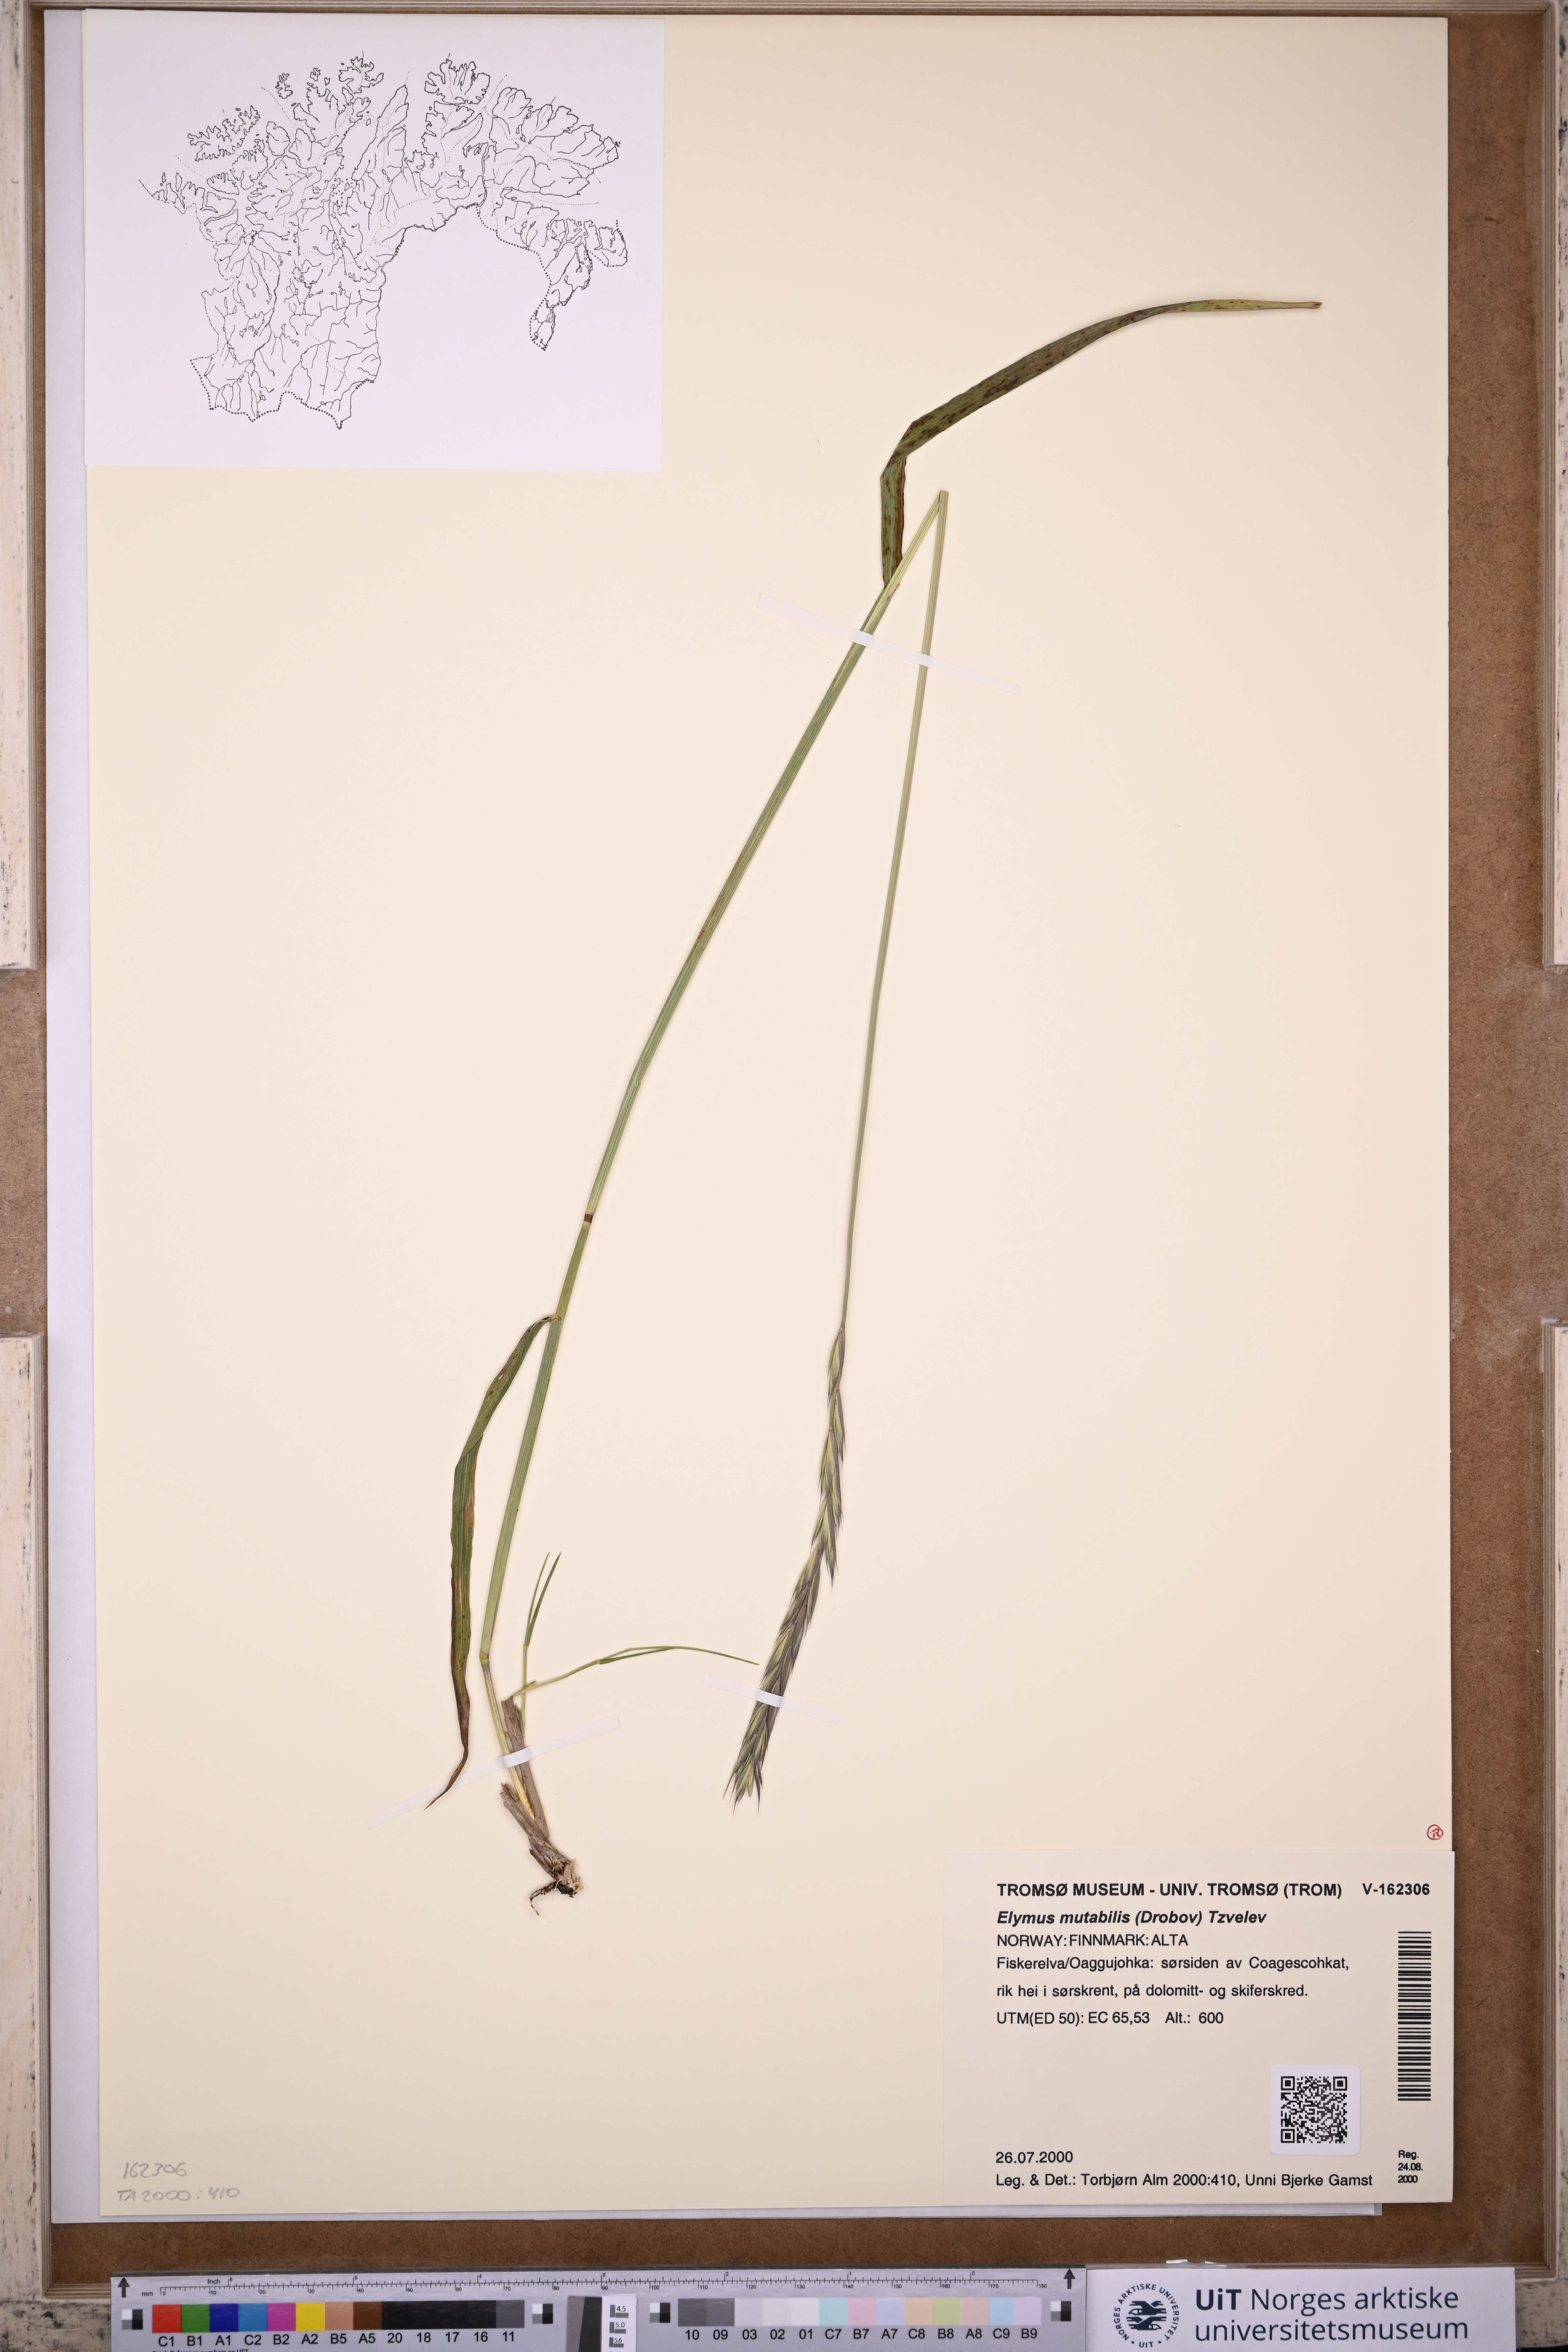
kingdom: Plantae
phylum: Tracheophyta
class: Liliopsida
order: Poales
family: Poaceae
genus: Elymus
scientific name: Elymus mutabilis
